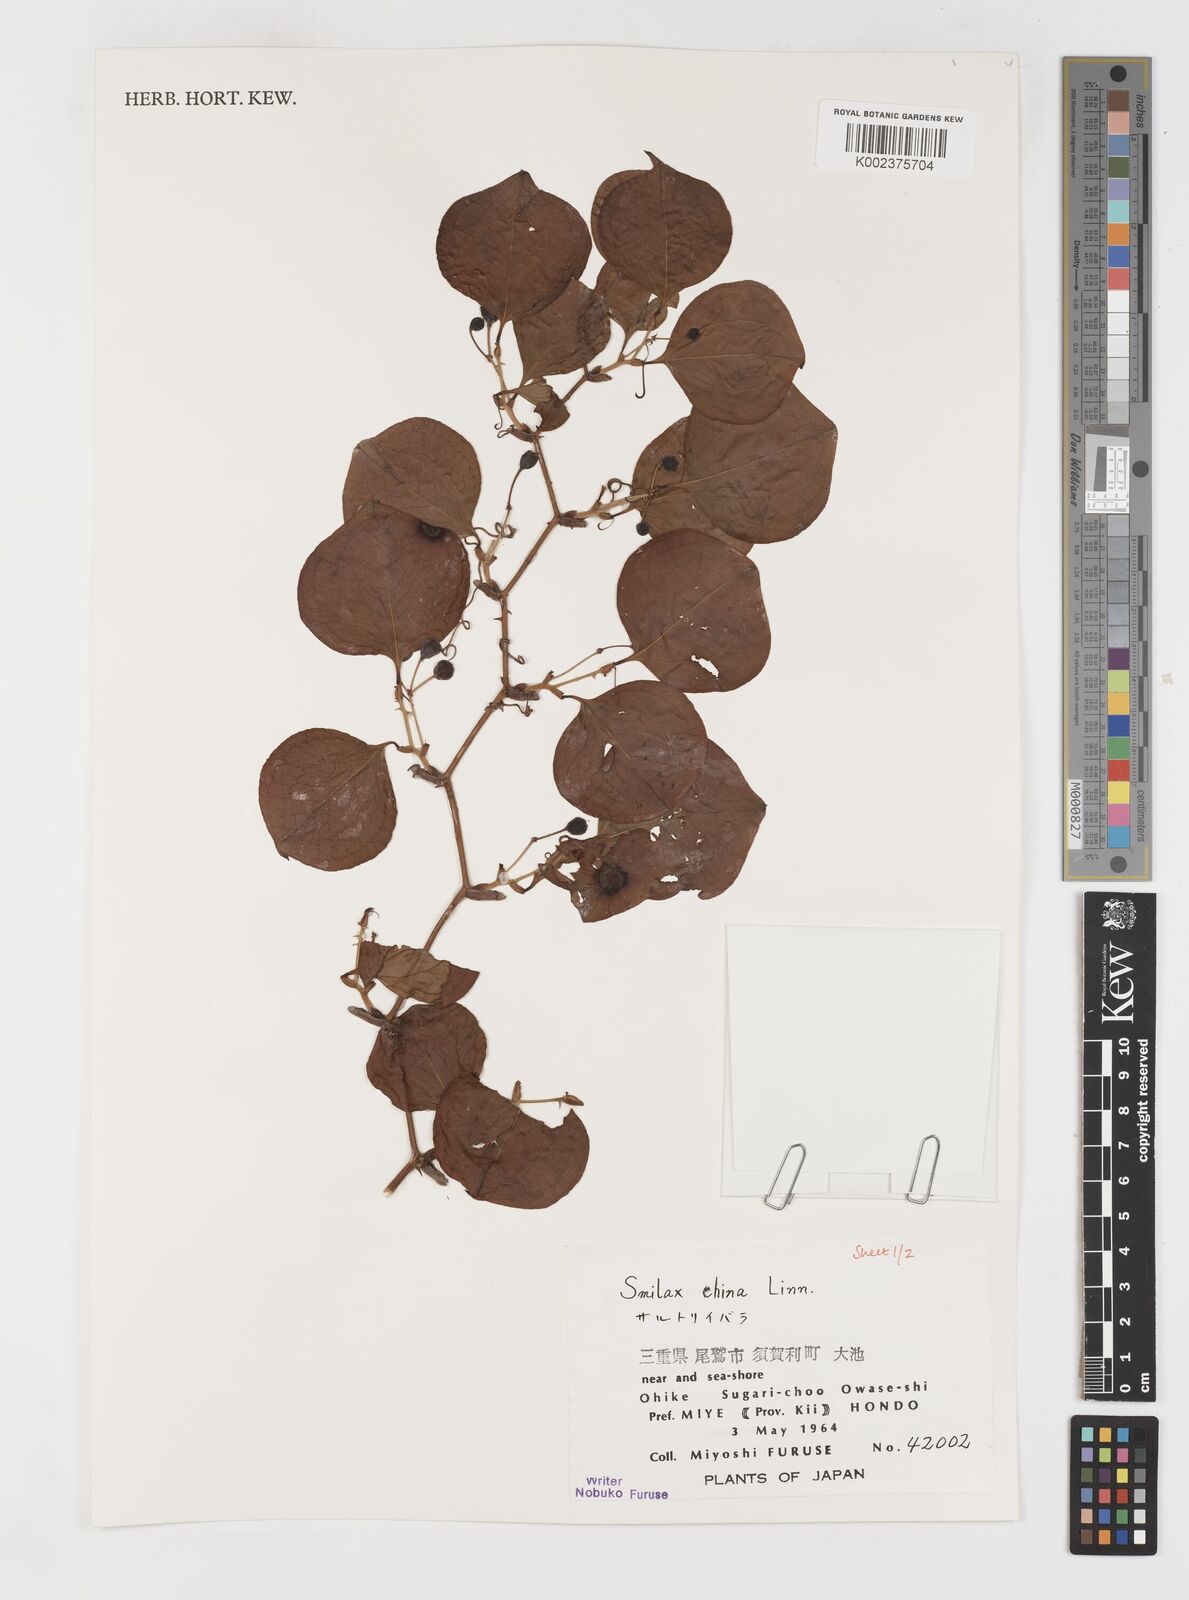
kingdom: Plantae
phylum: Tracheophyta
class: Liliopsida
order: Liliales
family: Smilacaceae
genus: Smilax
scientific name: Smilax china
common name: Chinaroot
